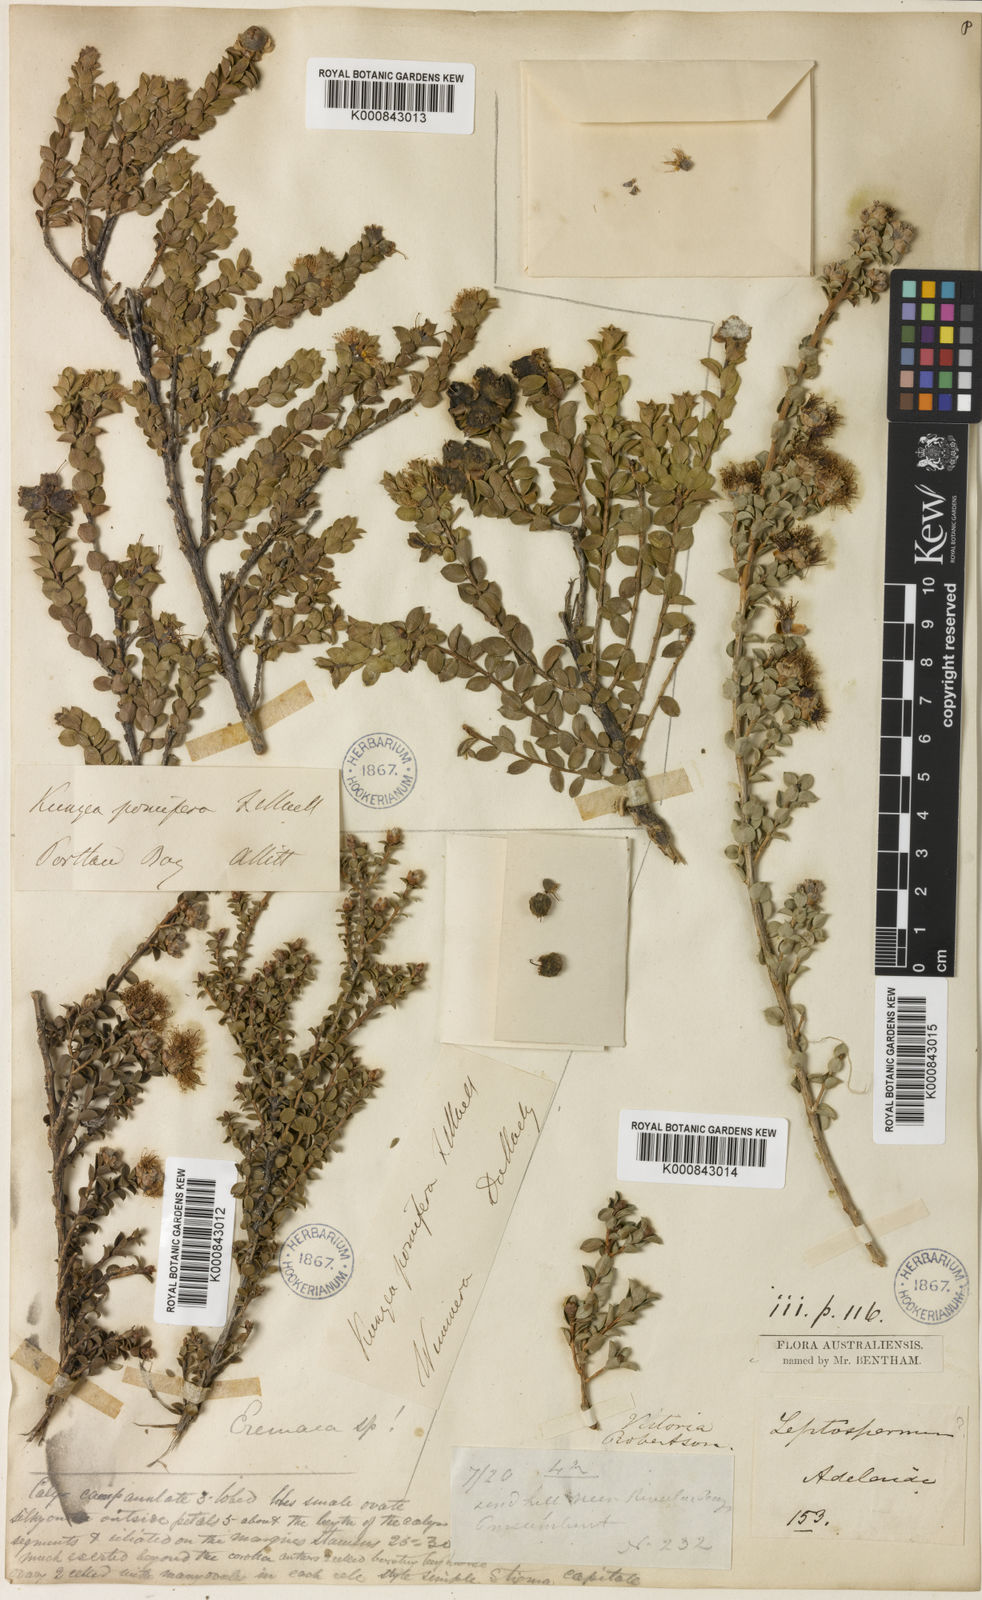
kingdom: Plantae
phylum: Tracheophyta
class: Magnoliopsida
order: Myrtales
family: Myrtaceae
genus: Kunzea
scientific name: Kunzea pomifera
